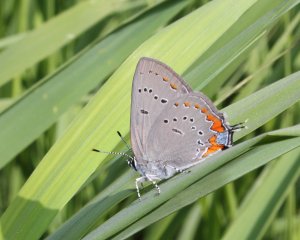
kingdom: Animalia
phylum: Arthropoda
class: Insecta
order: Lepidoptera
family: Lycaenidae
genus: Strymon
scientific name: Strymon acadica
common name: Acadian Hairstreak
